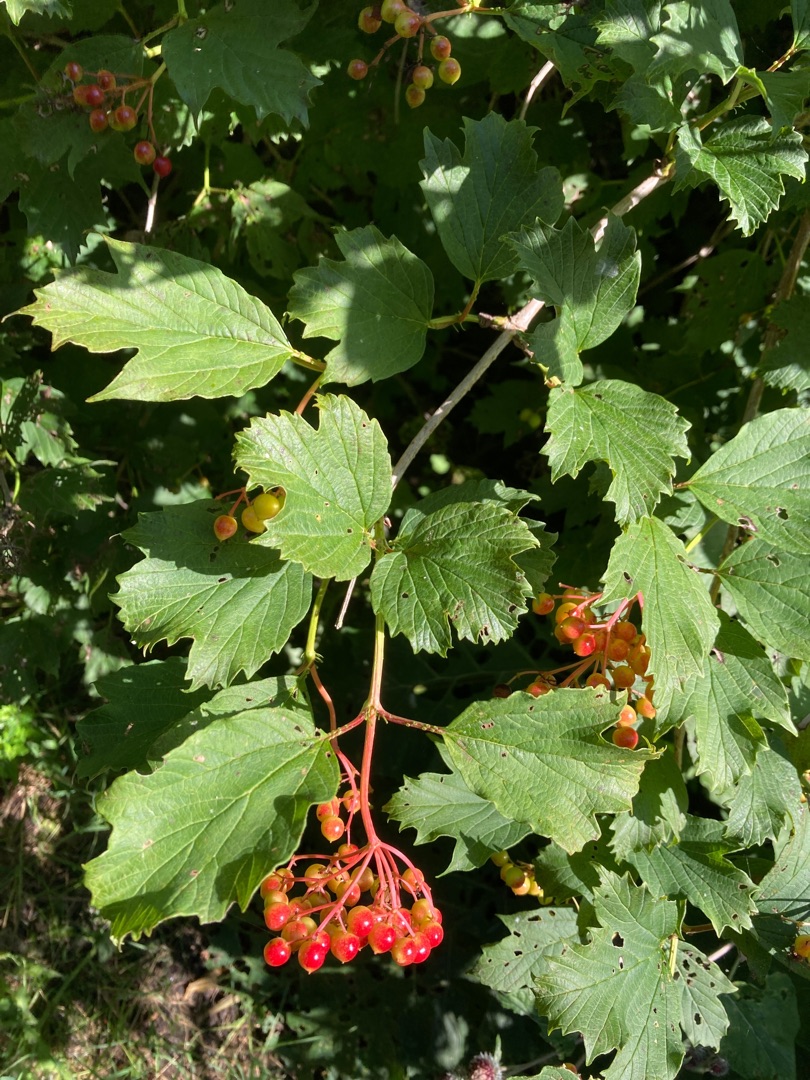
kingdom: Plantae
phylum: Tracheophyta
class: Magnoliopsida
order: Dipsacales
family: Viburnaceae
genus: Viburnum
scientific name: Viburnum opulus
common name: Kvalkved
